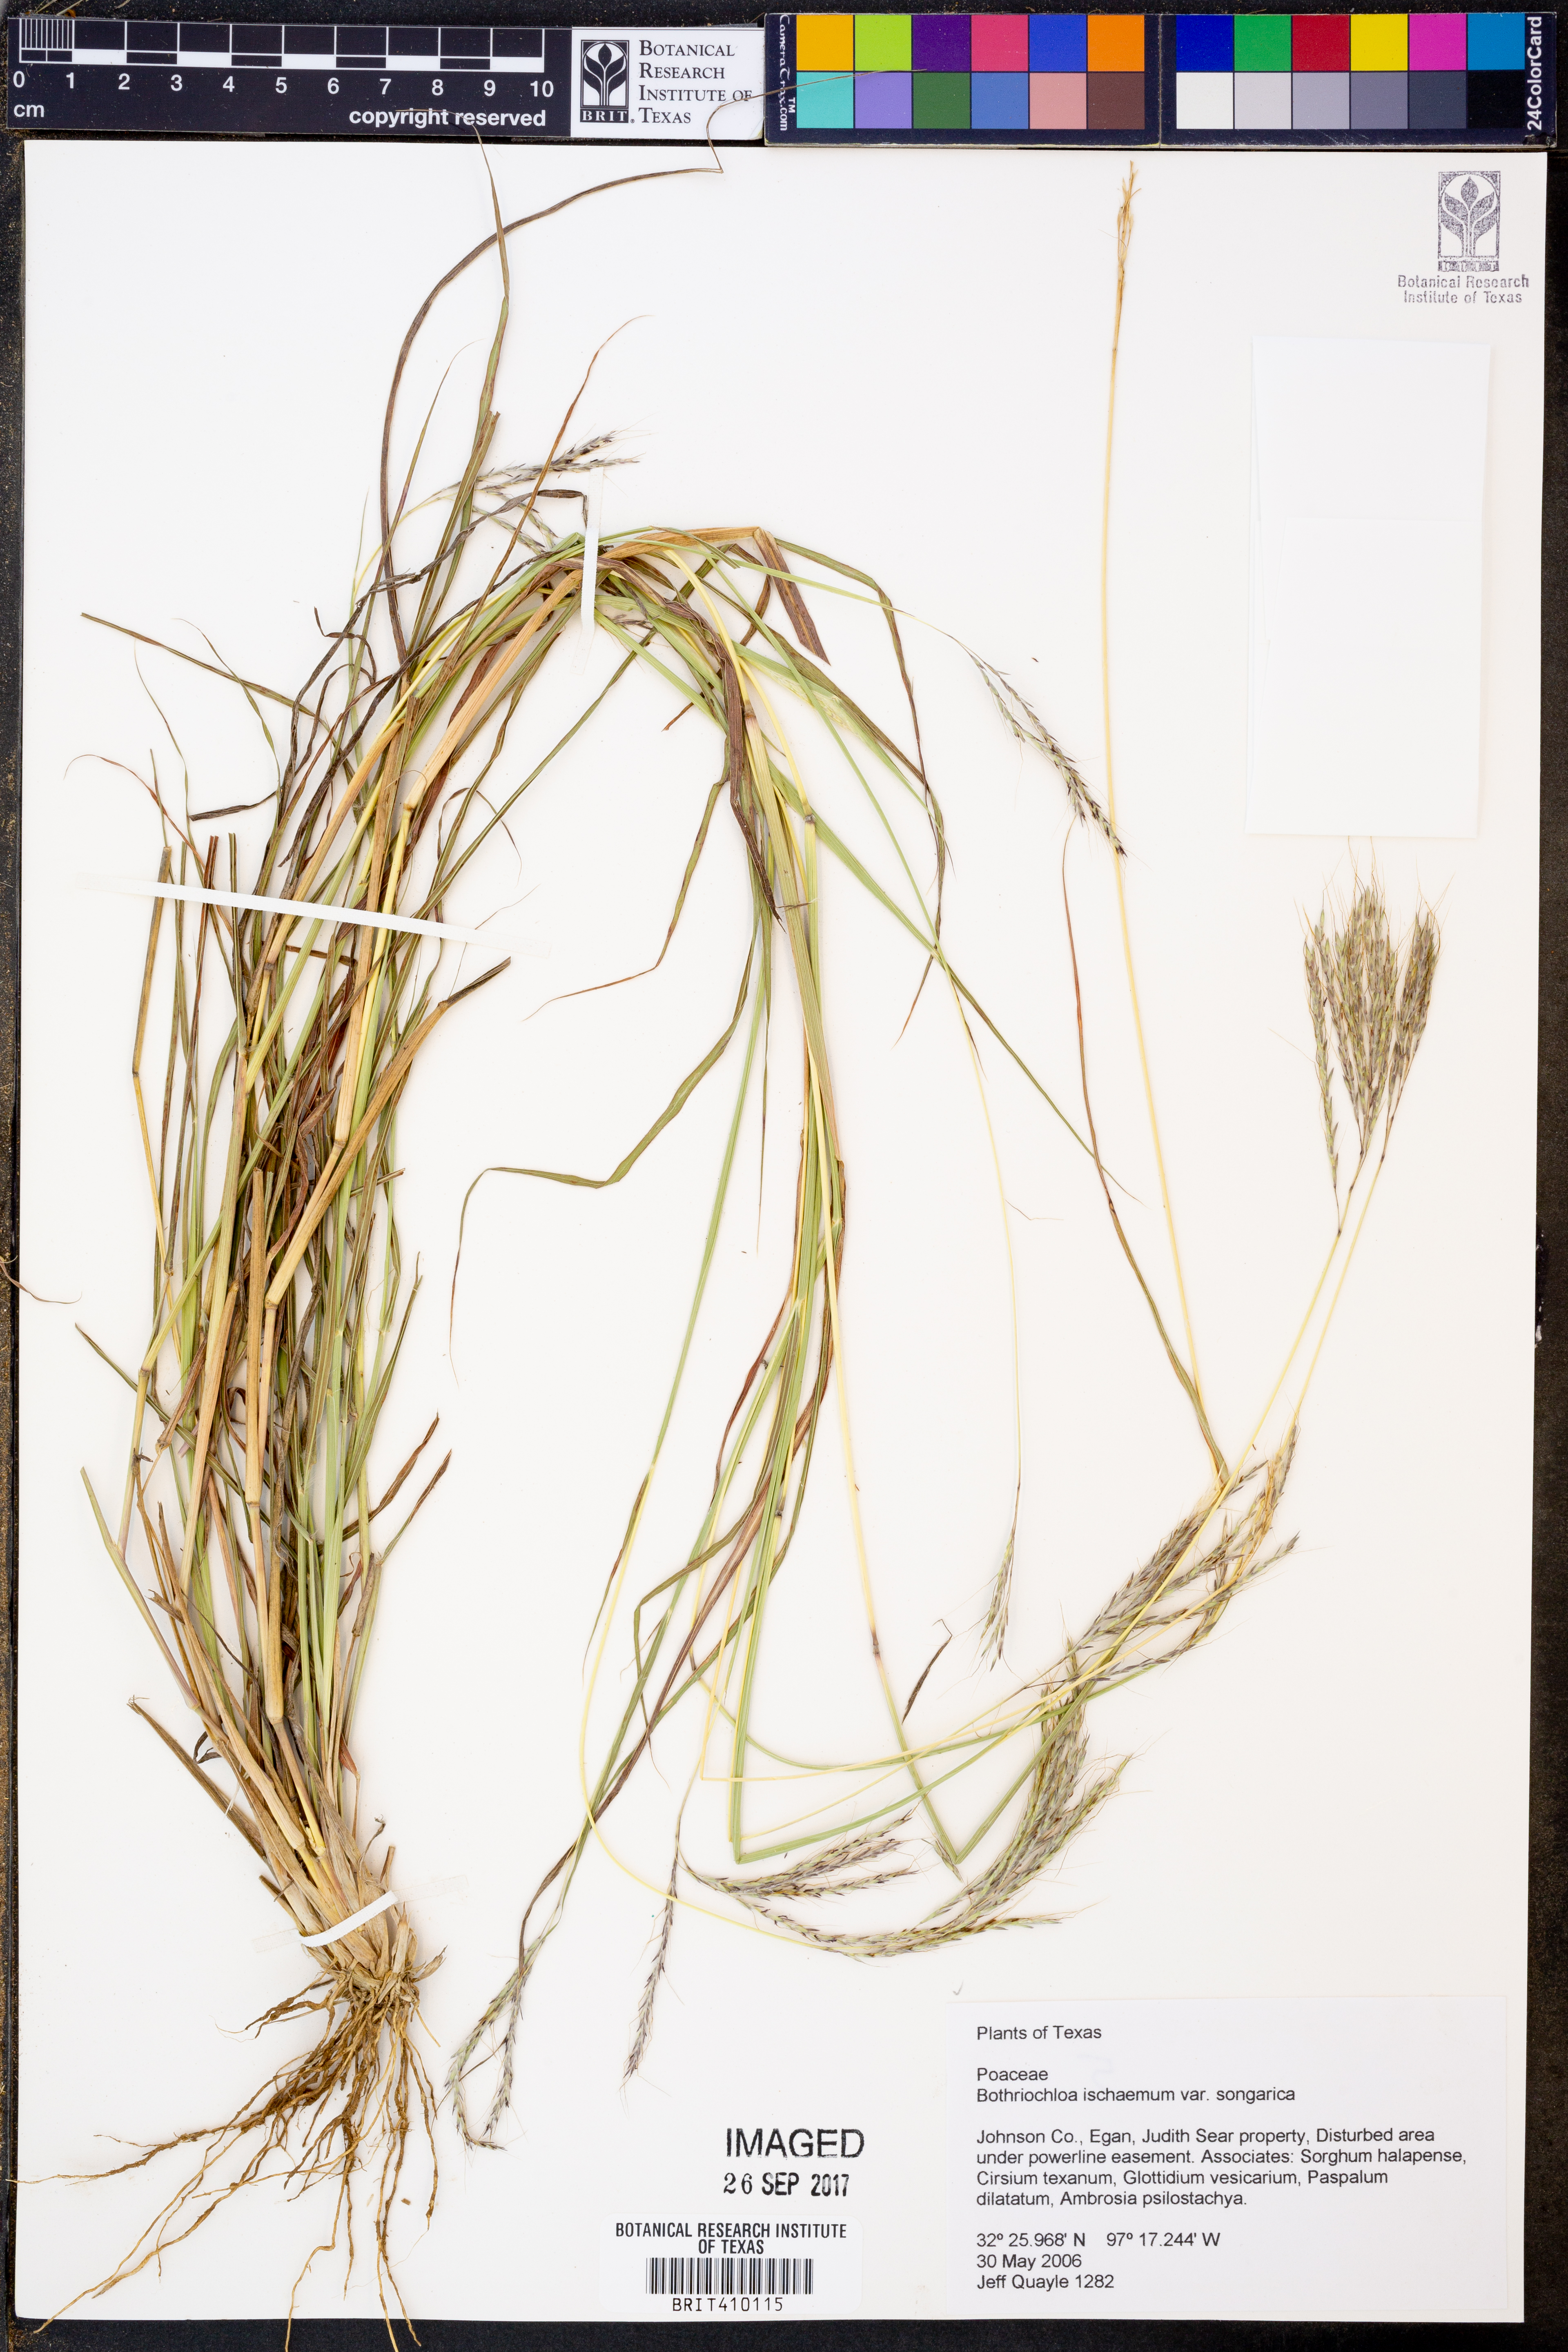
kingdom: Plantae
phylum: Tracheophyta
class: Liliopsida
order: Poales
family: Poaceae
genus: Bothriochloa
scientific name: Bothriochloa ischaemum
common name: Yellow bluestem
